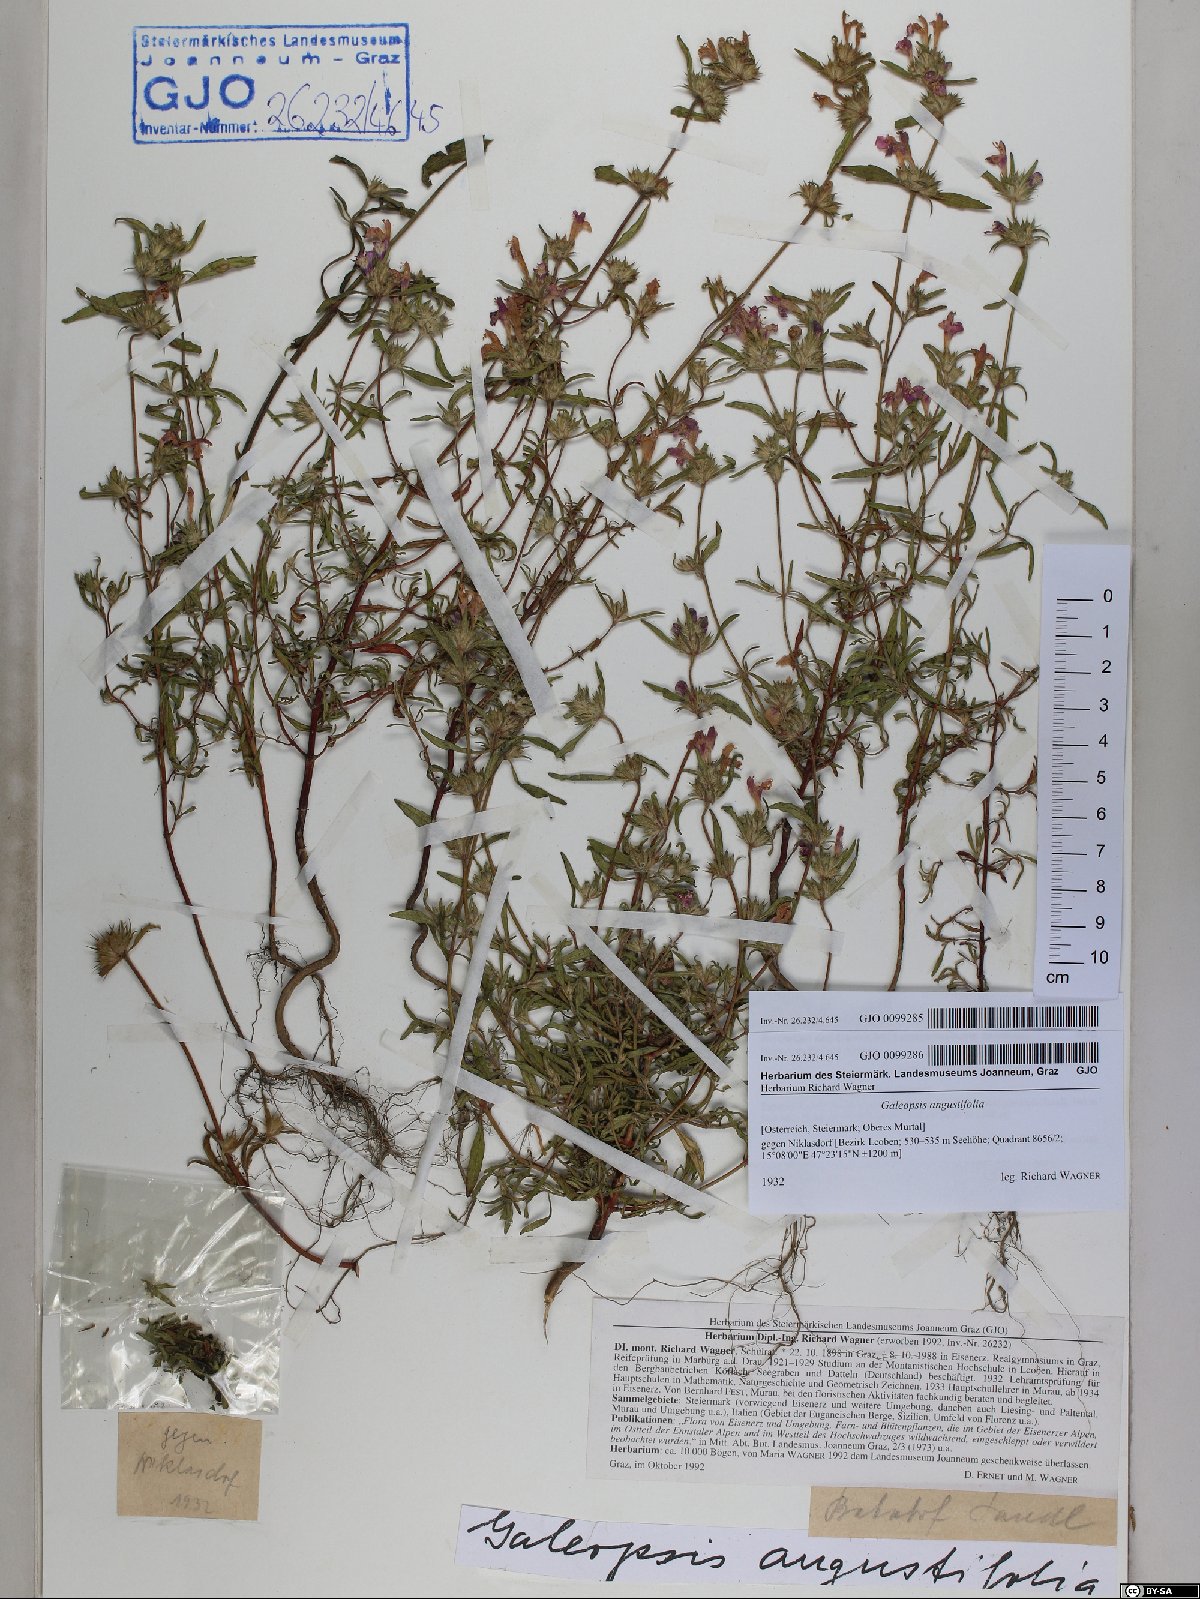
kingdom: Plantae
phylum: Tracheophyta
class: Magnoliopsida
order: Lamiales
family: Lamiaceae
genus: Galeopsis
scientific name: Galeopsis angustifolia
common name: Red hemp-nettle
